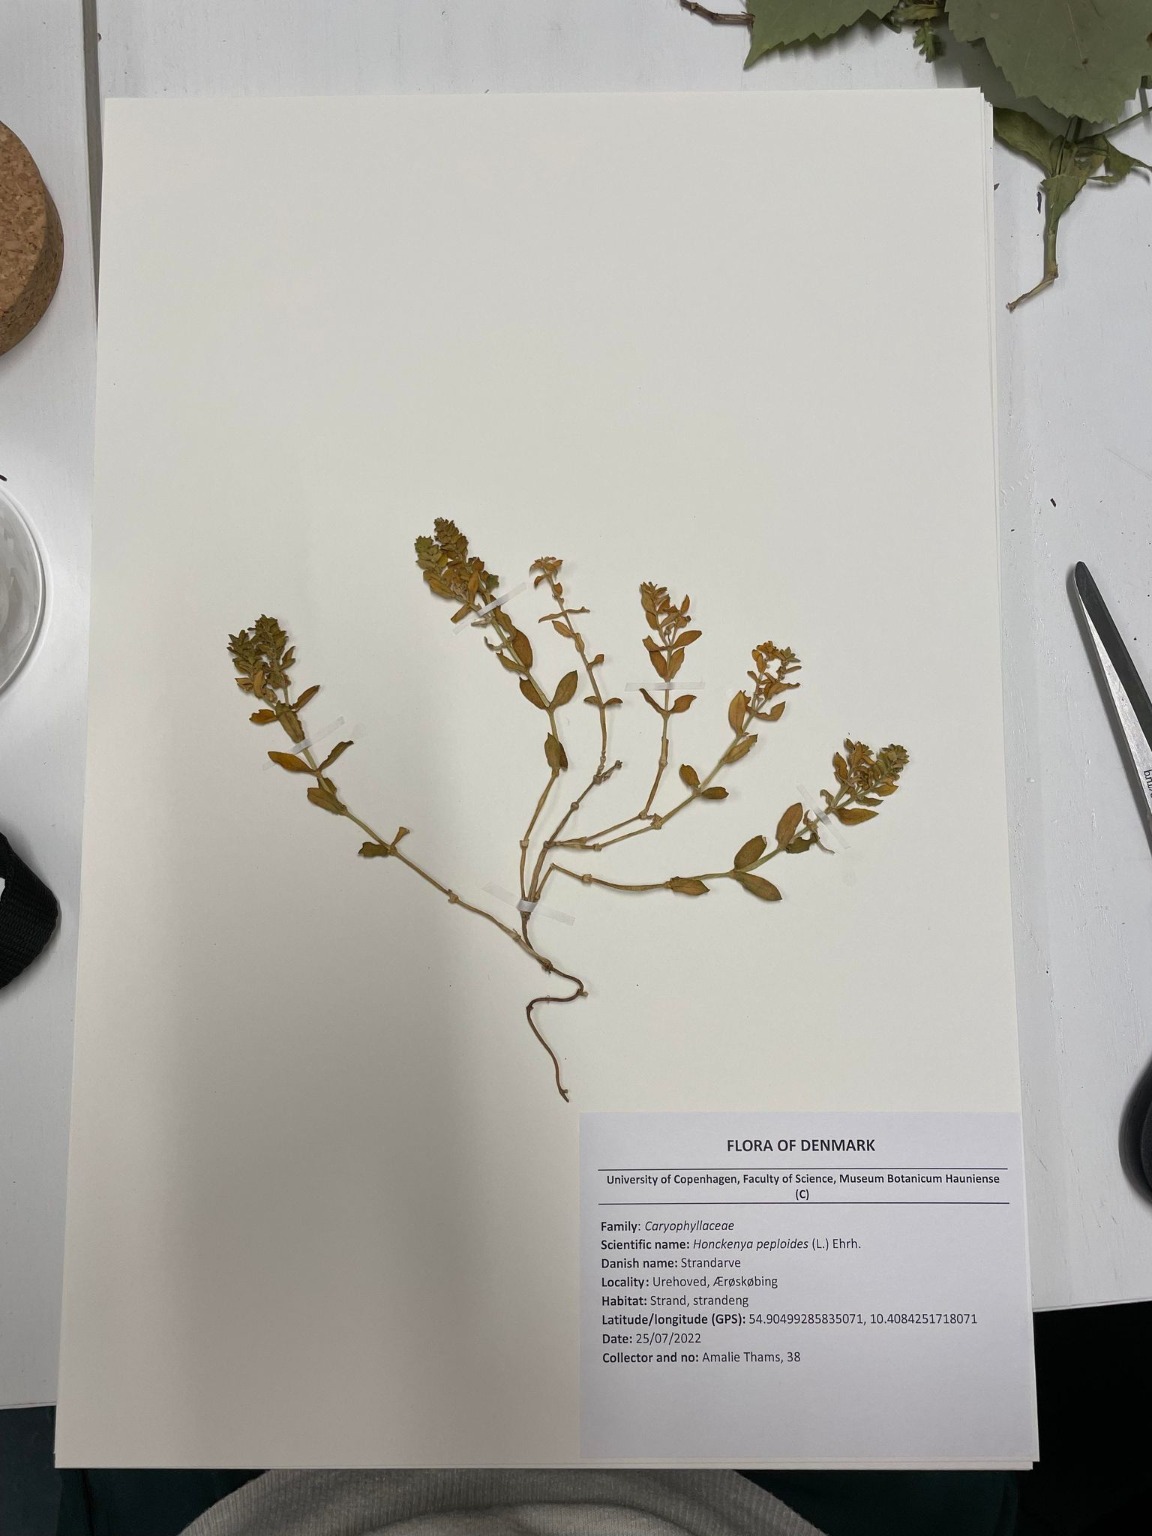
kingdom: Plantae
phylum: Tracheophyta
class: Magnoliopsida
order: Caryophyllales
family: Caryophyllaceae
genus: Honckenya
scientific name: Honckenya peploides
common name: Strandarve
